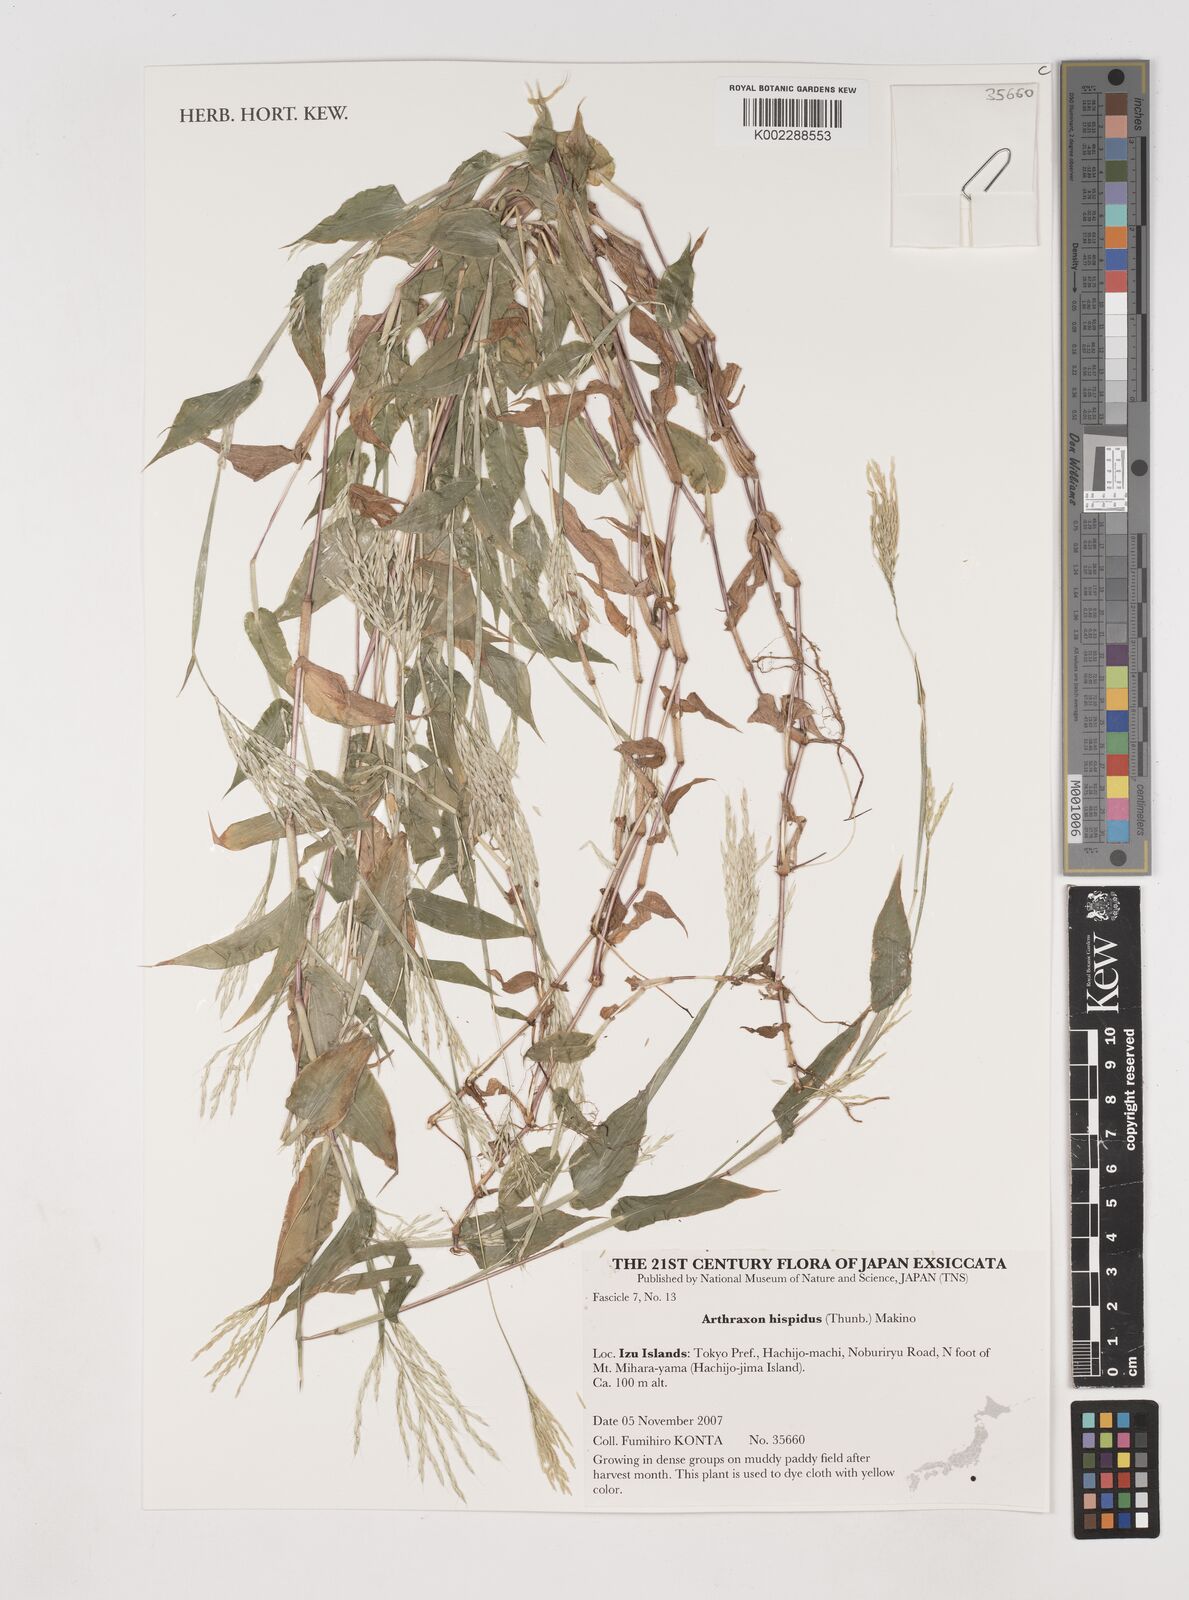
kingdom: Plantae
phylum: Tracheophyta
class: Liliopsida
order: Poales
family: Poaceae
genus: Arthraxon
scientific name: Arthraxon hispidus
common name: Small carpgrass
